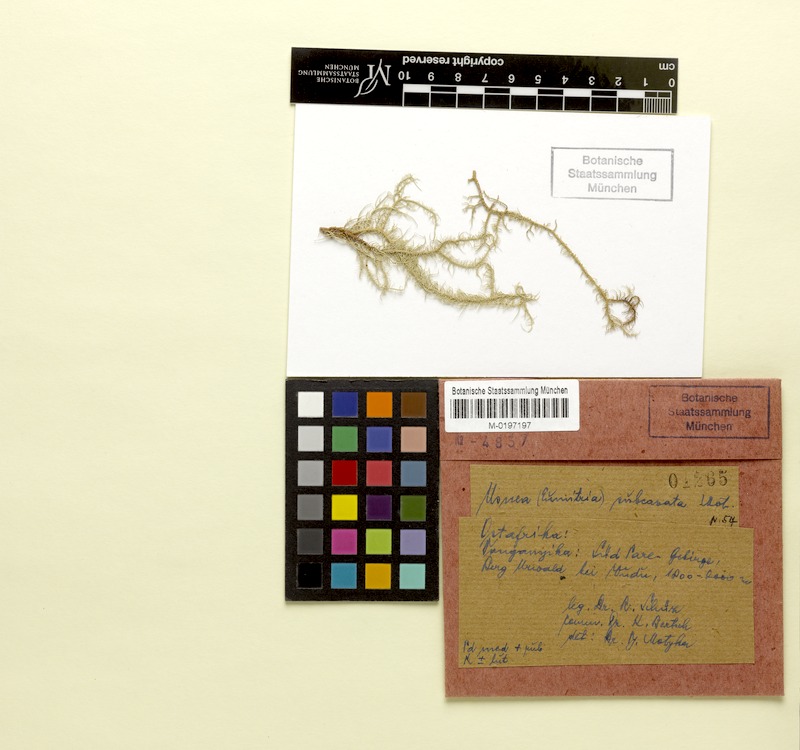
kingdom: Fungi
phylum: Ascomycota
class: Lecanoromycetes
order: Lecanorales
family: Parmeliaceae
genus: Usnea
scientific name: Usnea subcavata
